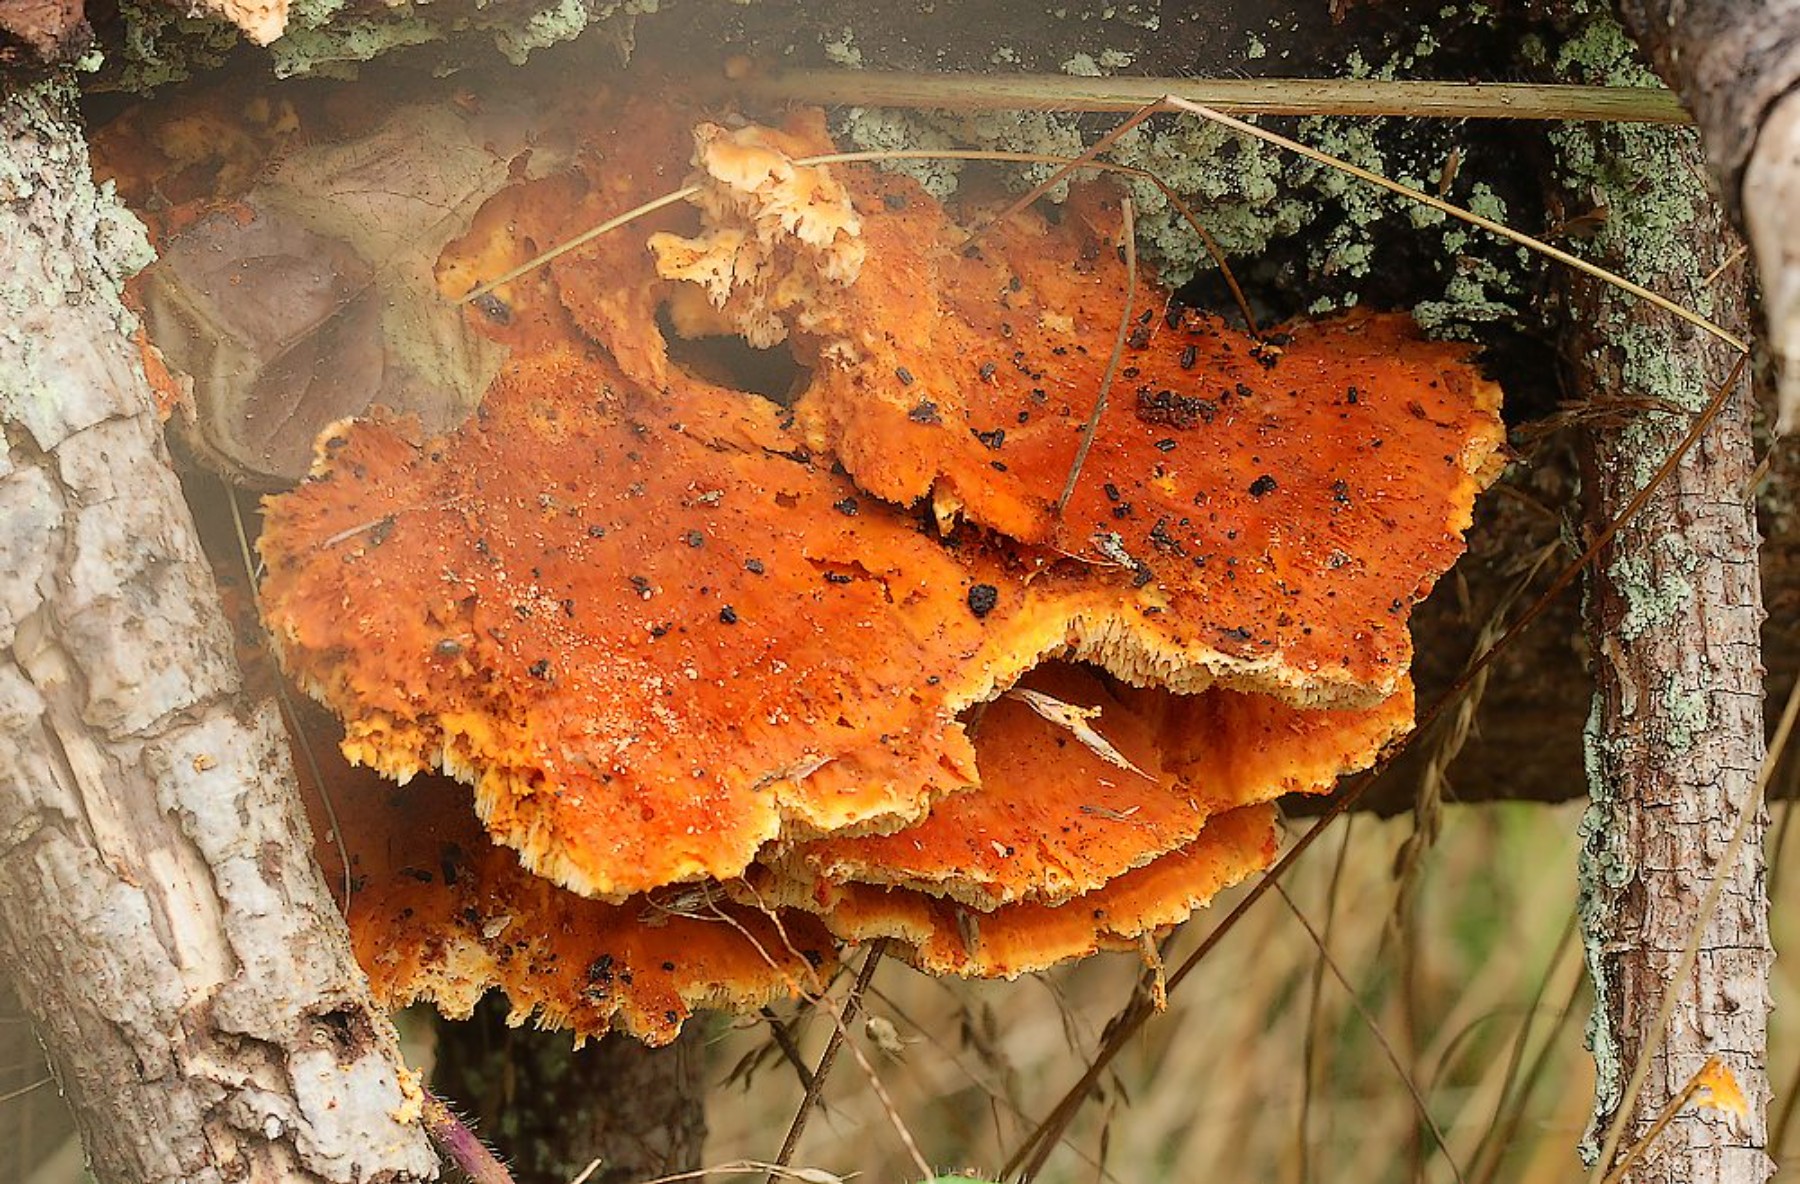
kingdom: Fungi
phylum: Basidiomycota
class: Agaricomycetes
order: Polyporales
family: Pycnoporellaceae
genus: Pycnoporellus
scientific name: Pycnoporellus fulgens
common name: flammeporesvamp
